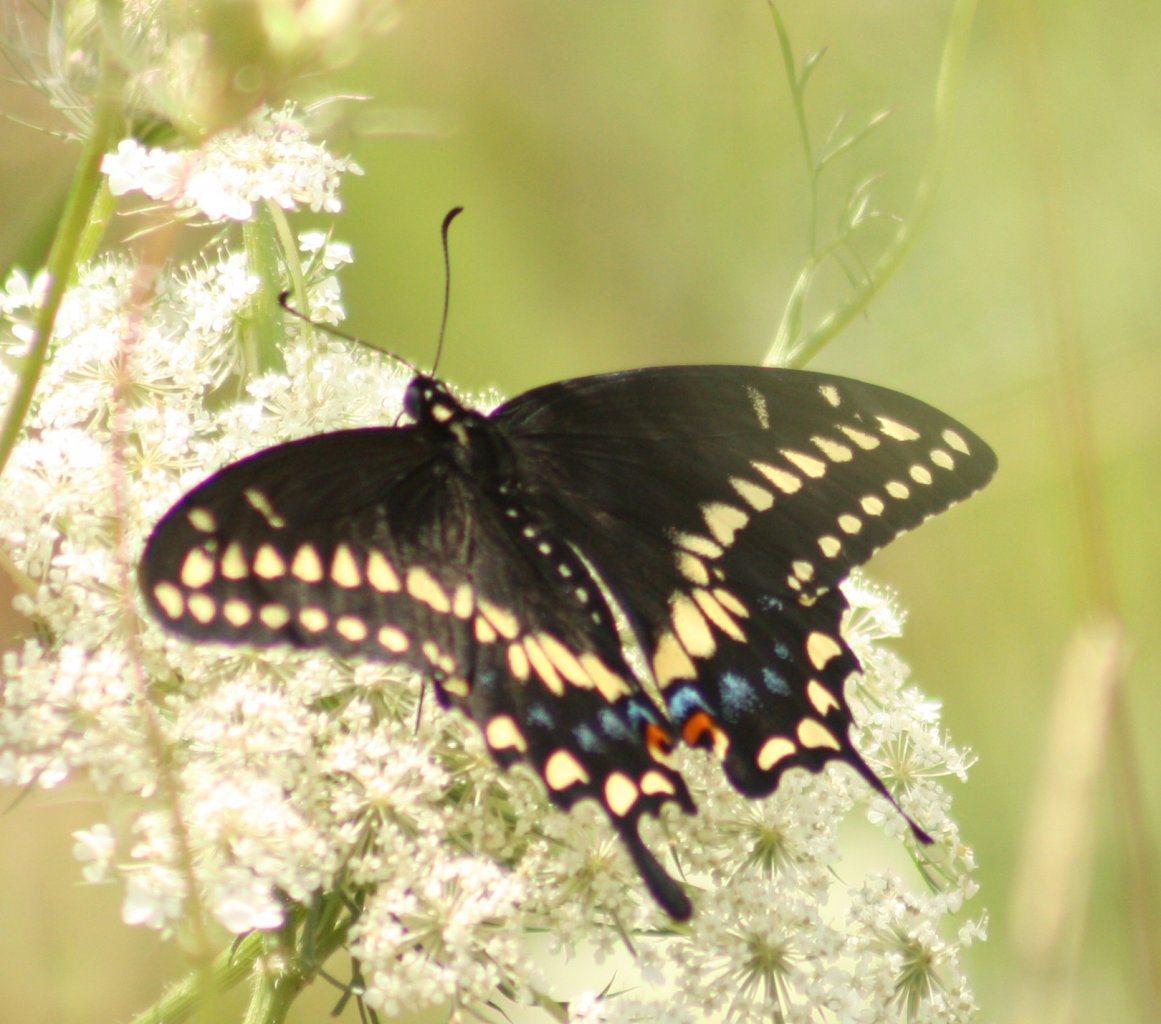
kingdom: Animalia
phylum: Arthropoda
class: Insecta
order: Lepidoptera
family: Papilionidae
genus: Papilio
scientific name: Papilio polyxenes
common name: Black Swallowtail
